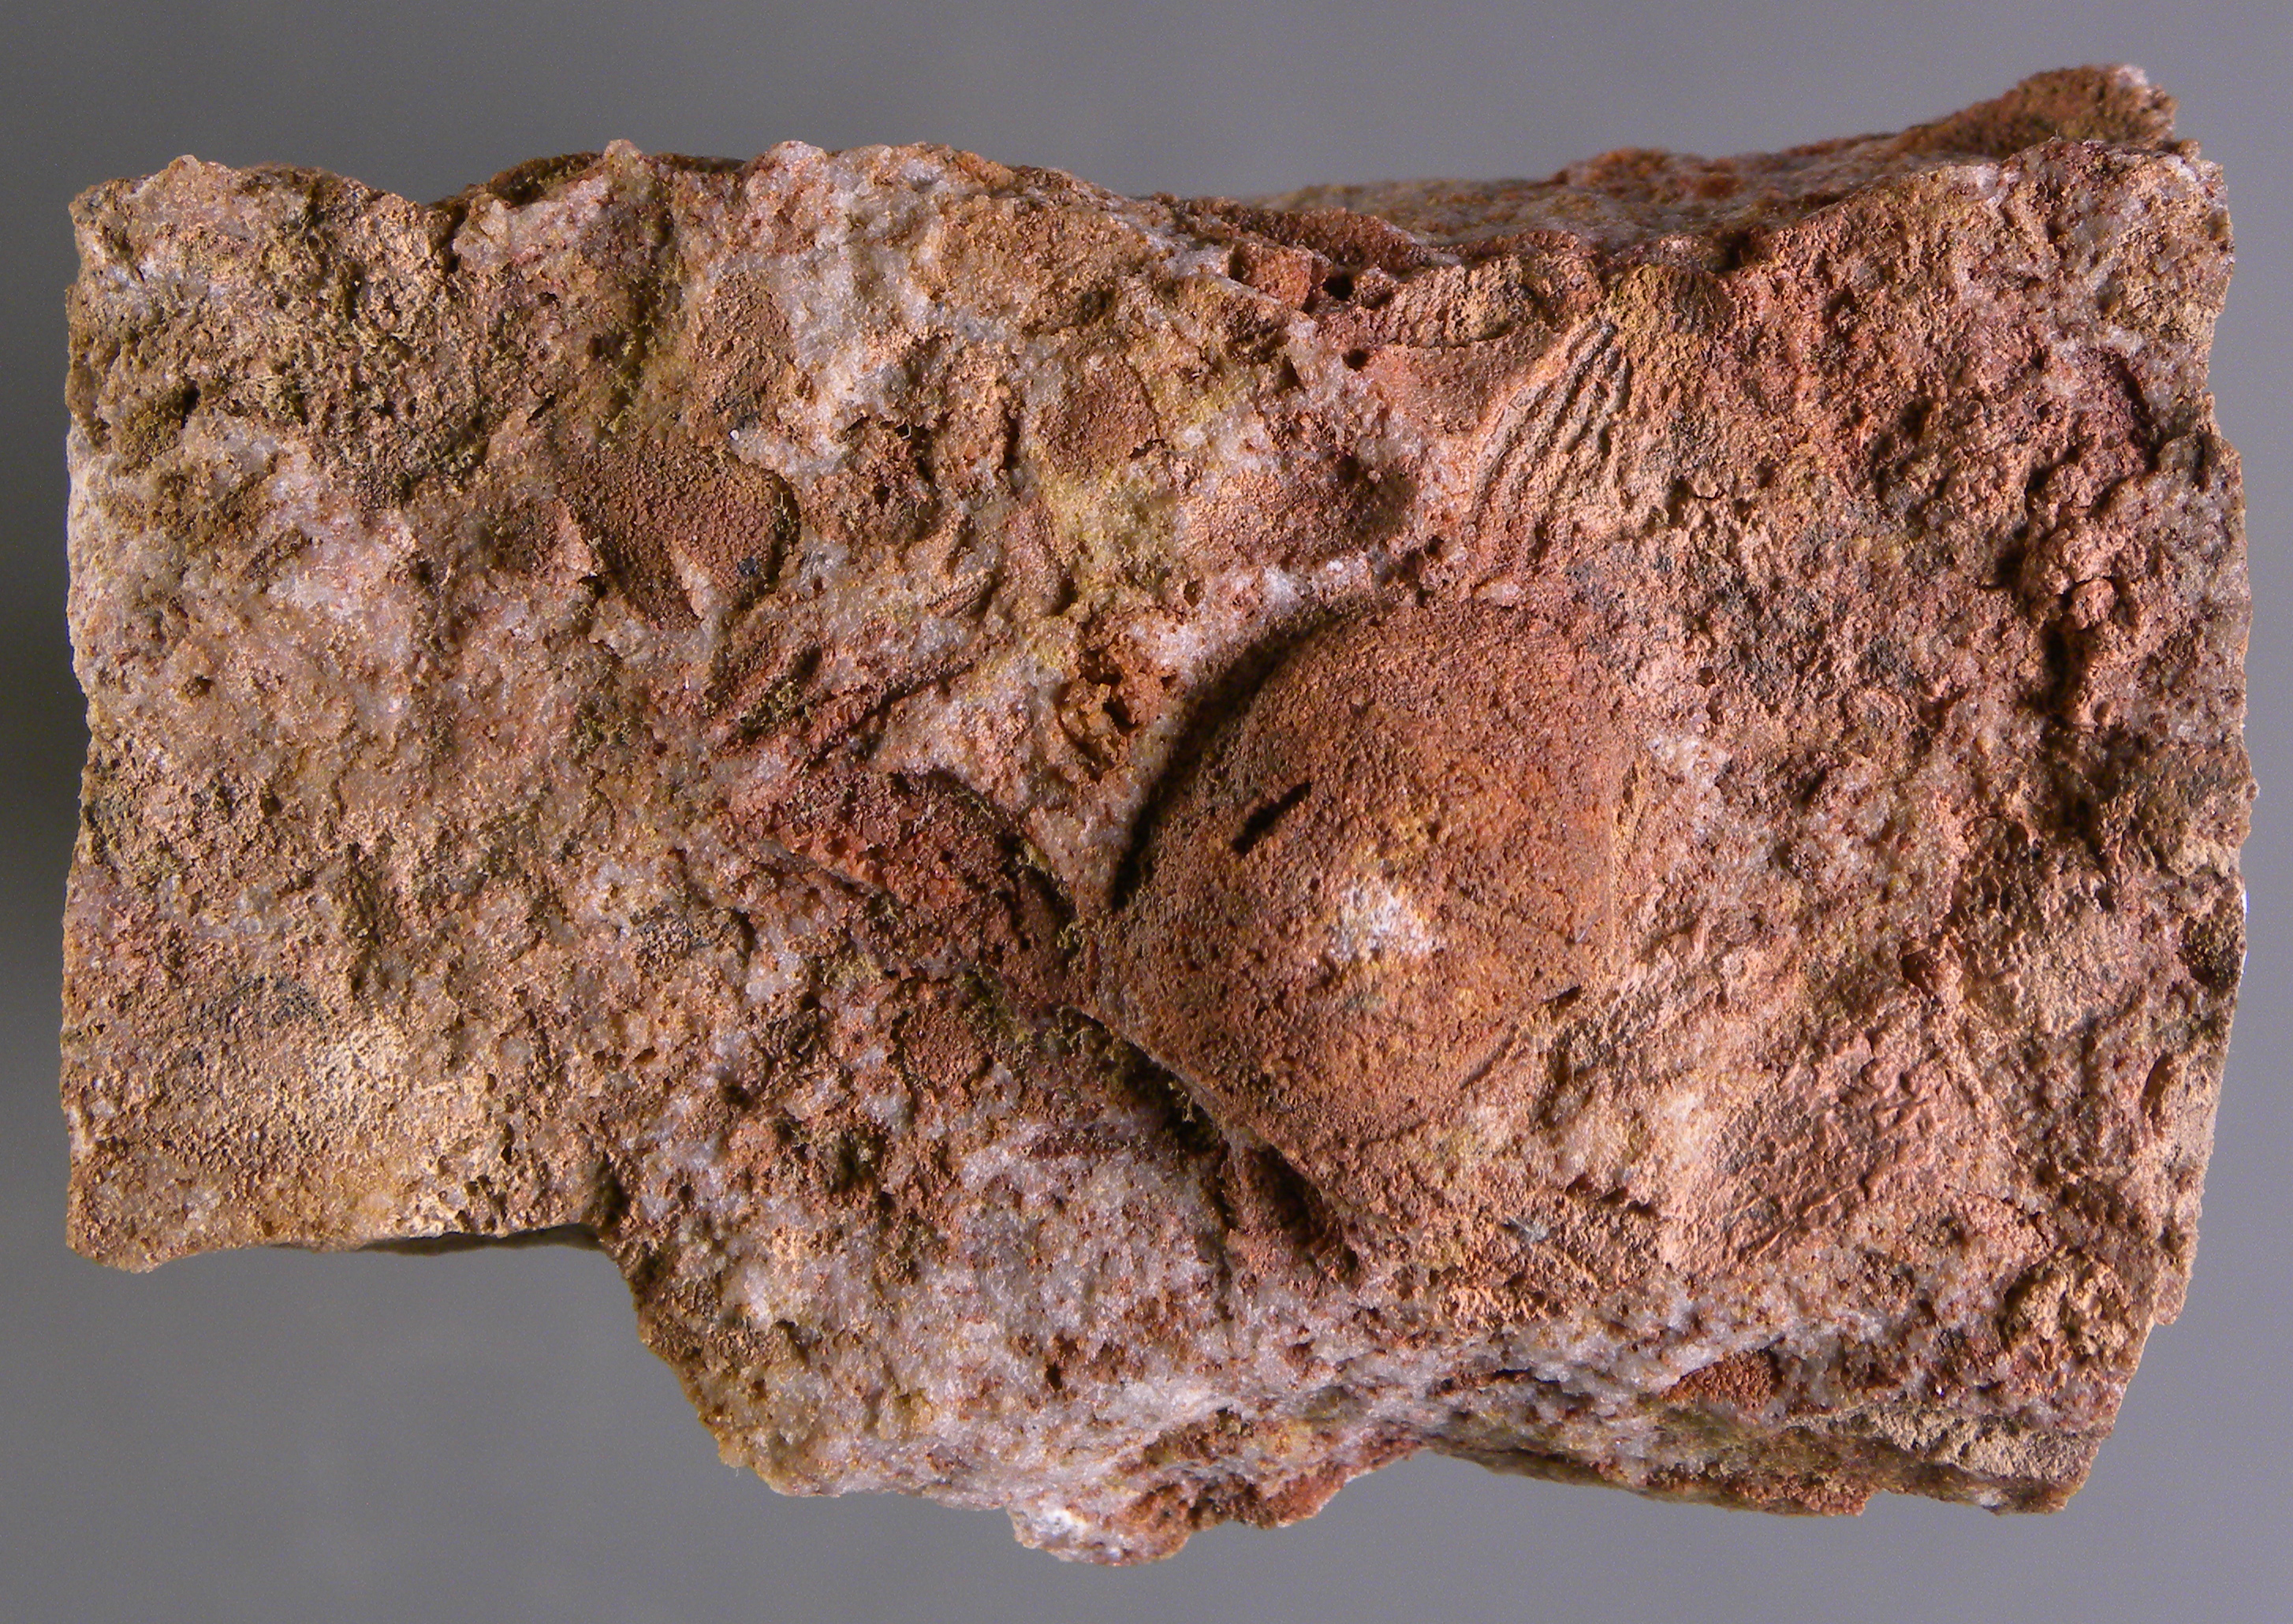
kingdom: Animalia
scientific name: Animalia
